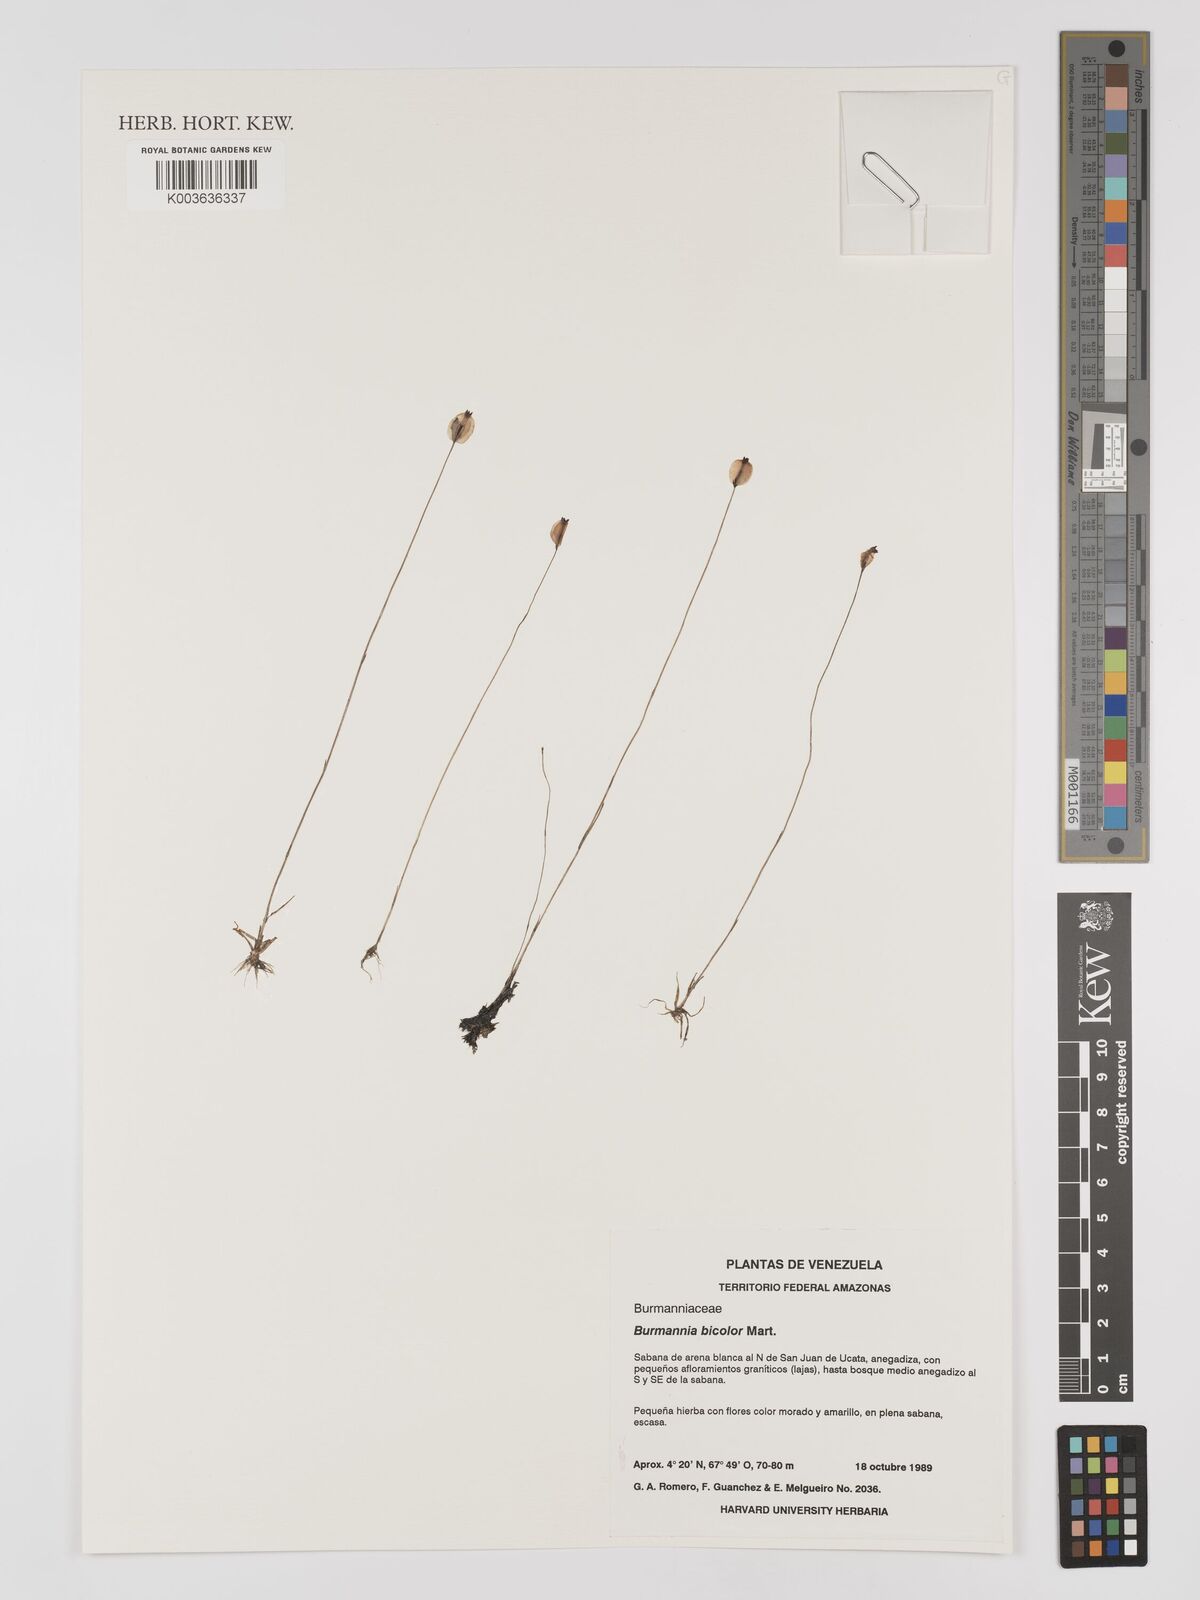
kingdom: Plantae
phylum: Tracheophyta
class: Liliopsida
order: Dioscoreales
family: Burmanniaceae
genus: Burmannia
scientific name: Burmannia bicolor
